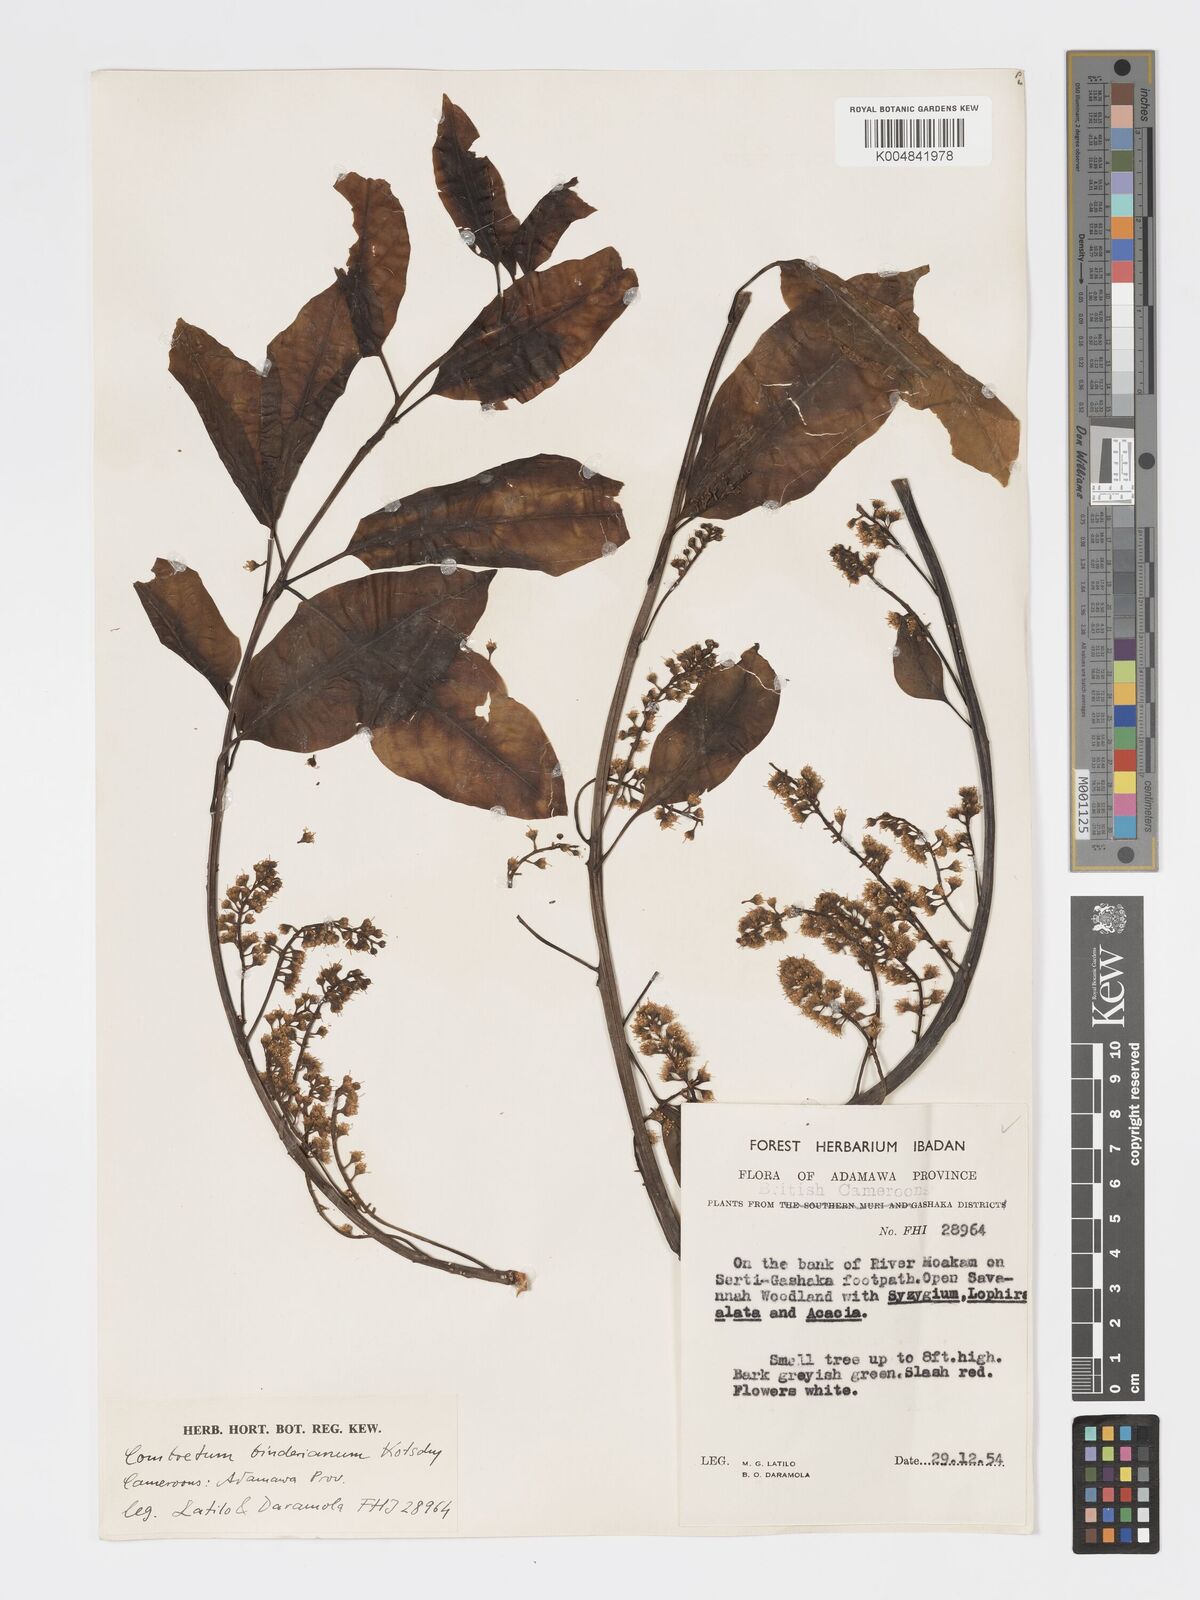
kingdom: Plantae
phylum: Tracheophyta
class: Magnoliopsida
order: Myrtales
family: Combretaceae
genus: Combretum
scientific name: Combretum collinum
